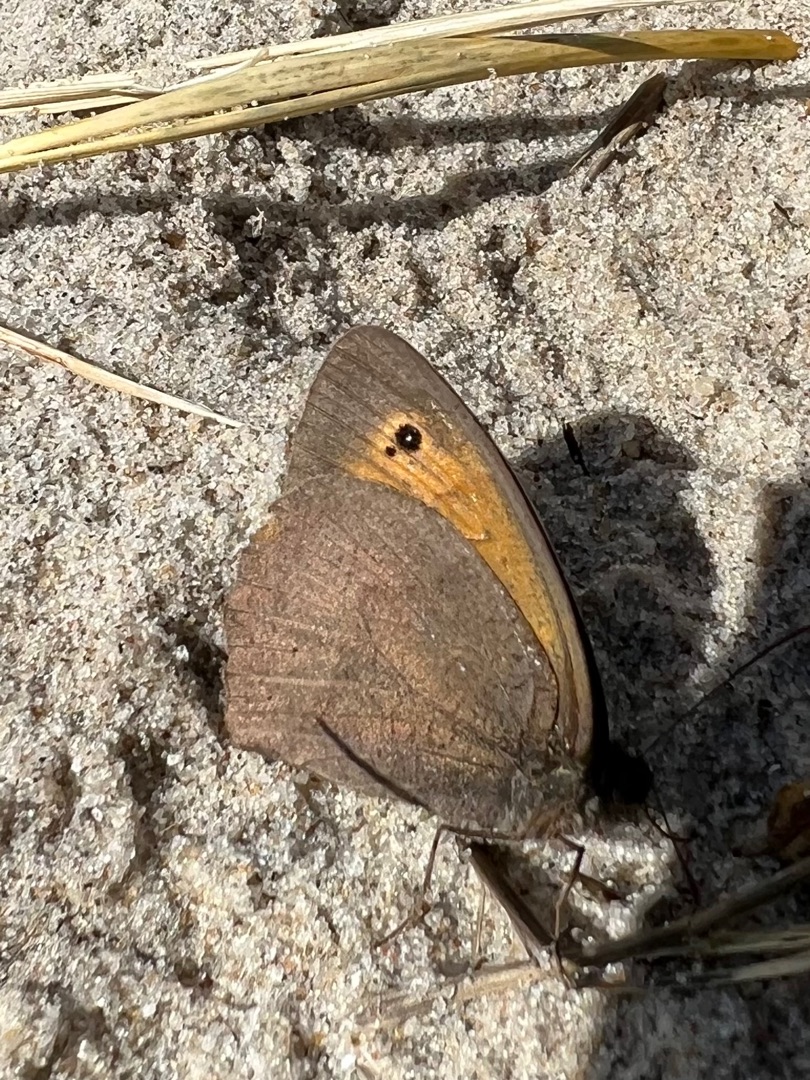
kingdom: Animalia
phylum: Arthropoda
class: Insecta
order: Lepidoptera
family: Nymphalidae
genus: Maniola
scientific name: Maniola jurtina
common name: Græsrandøje
